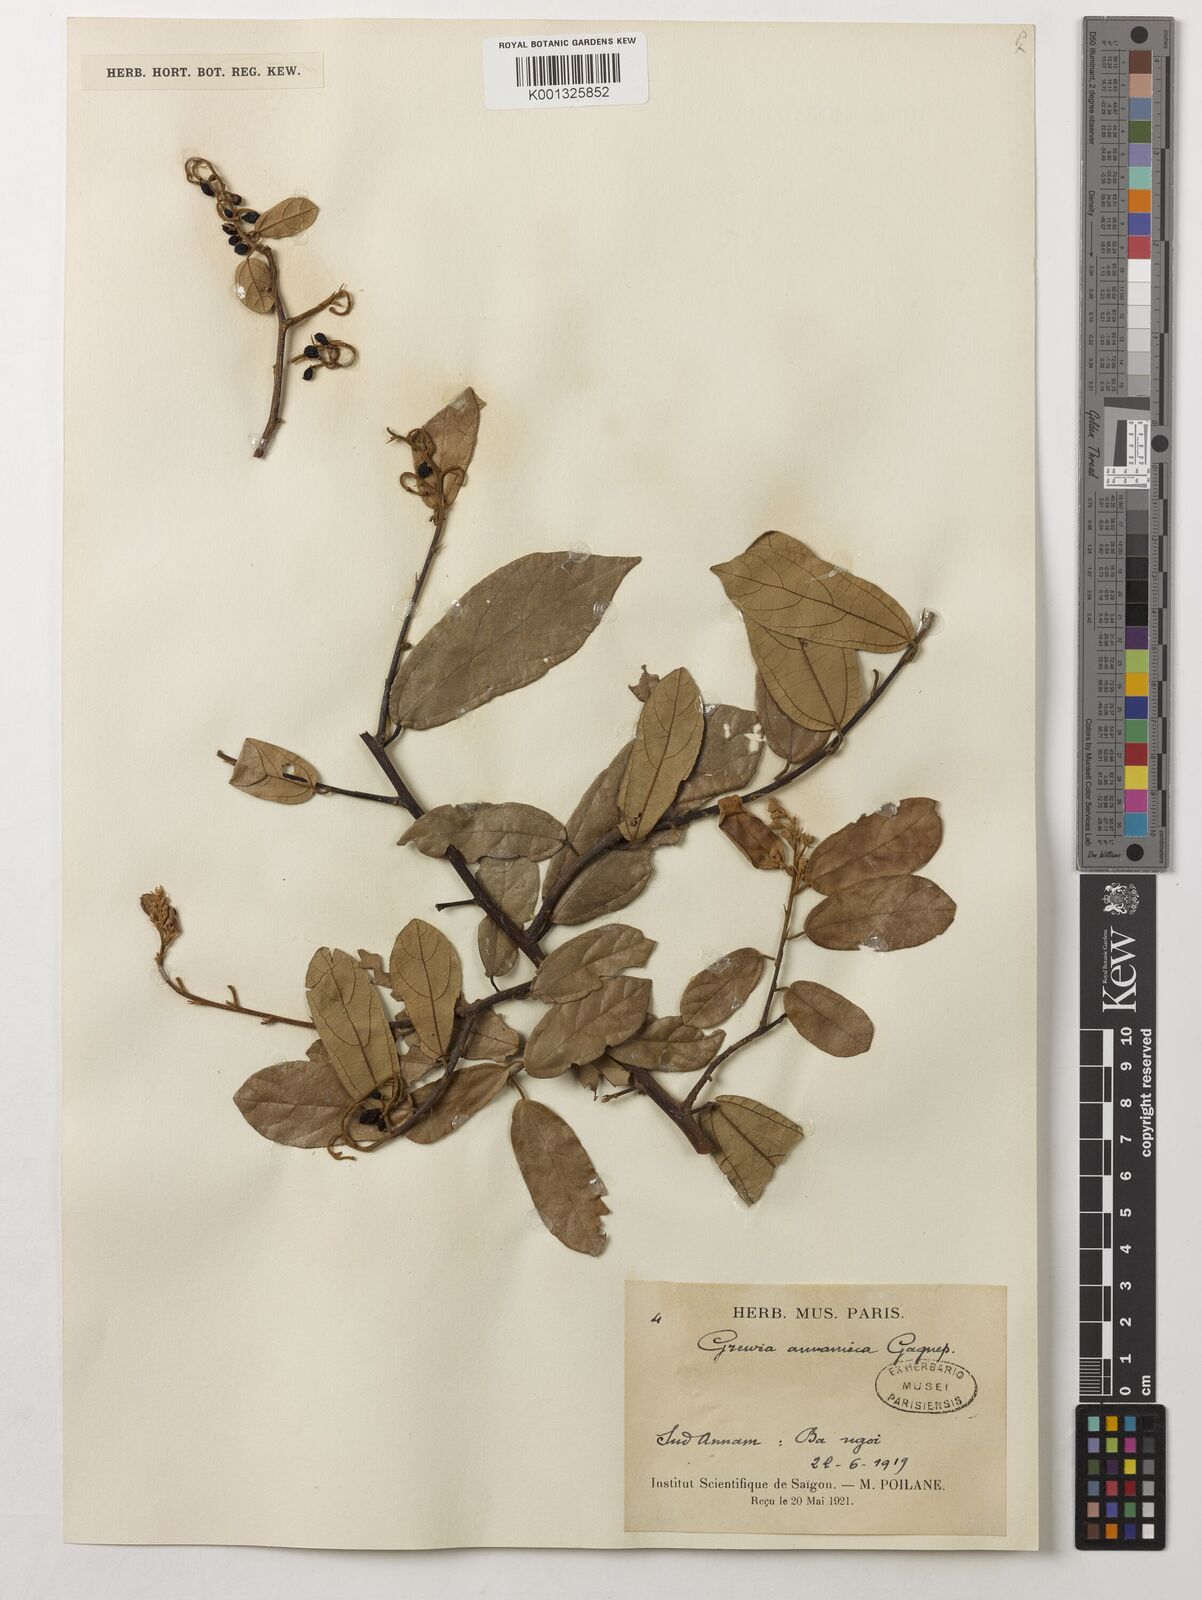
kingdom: Plantae
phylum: Tracheophyta
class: Magnoliopsida
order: Malvales
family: Malvaceae
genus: Grewia
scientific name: Grewia annamica
